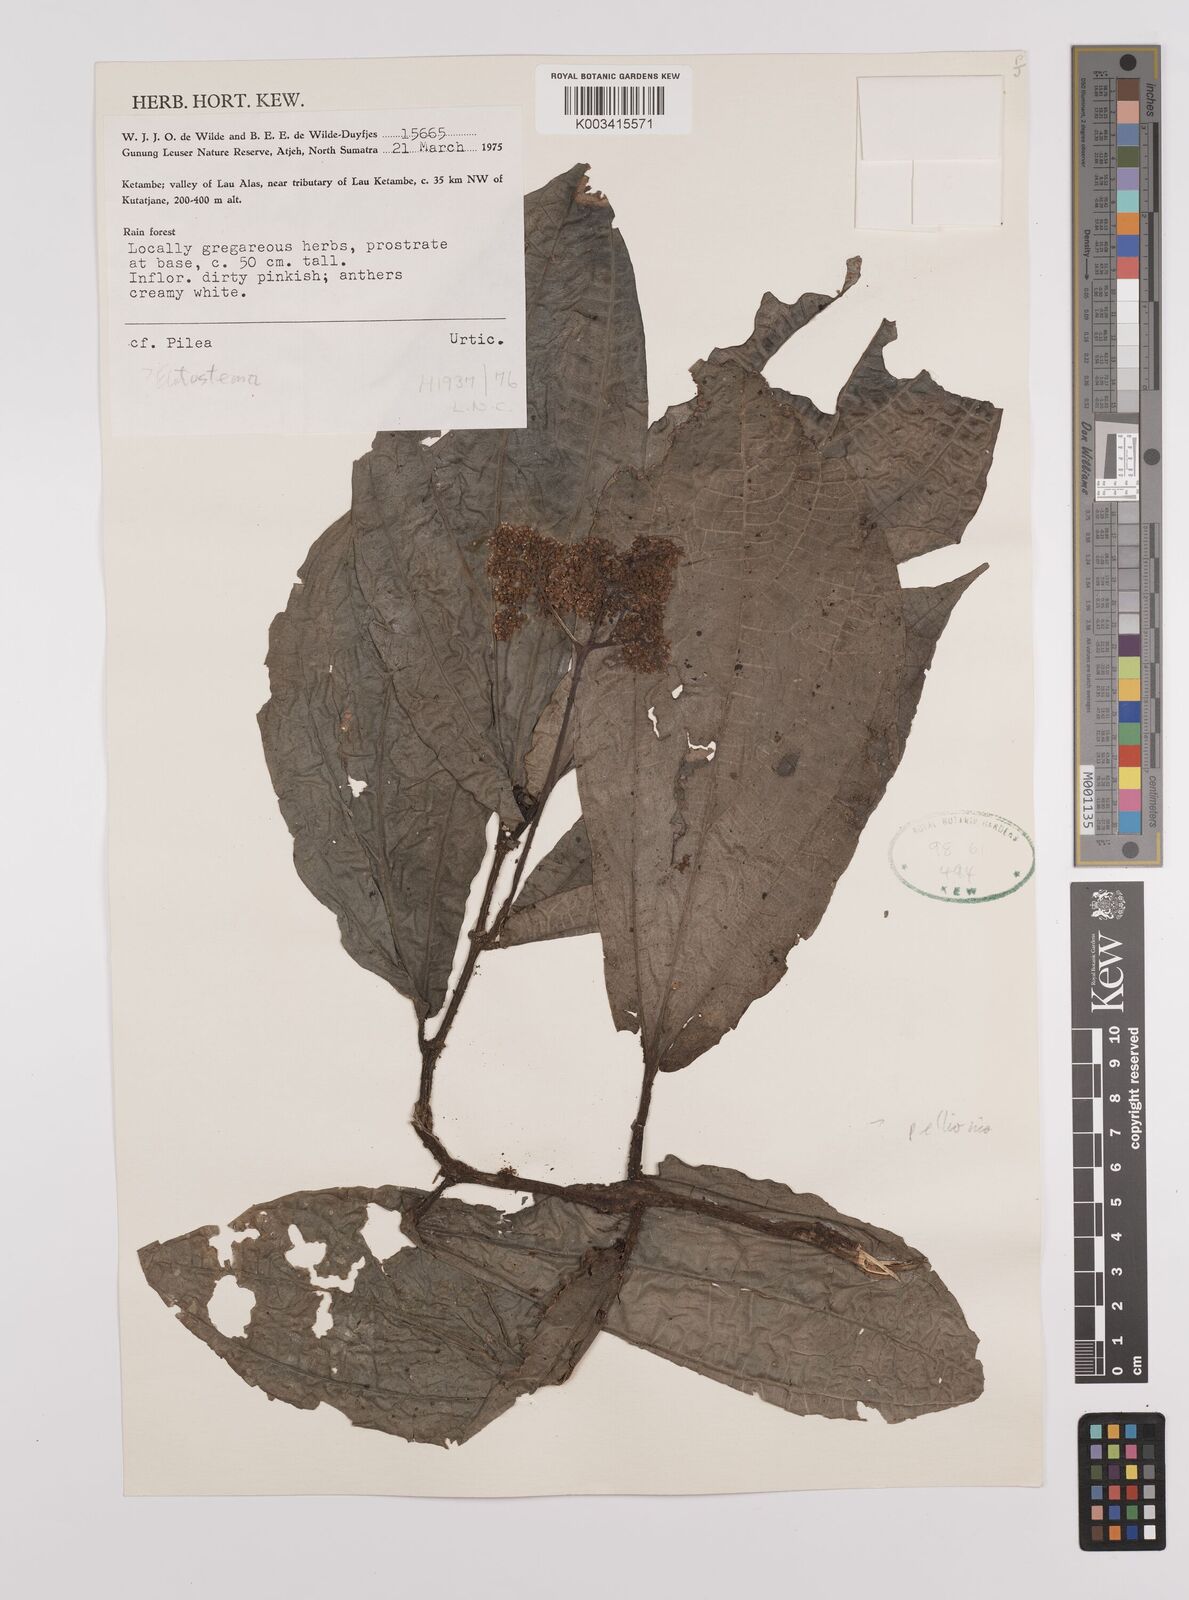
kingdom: Plantae
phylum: Tracheophyta
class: Magnoliopsida
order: Rosales
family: Urticaceae
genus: Elatostema
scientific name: Elatostema
